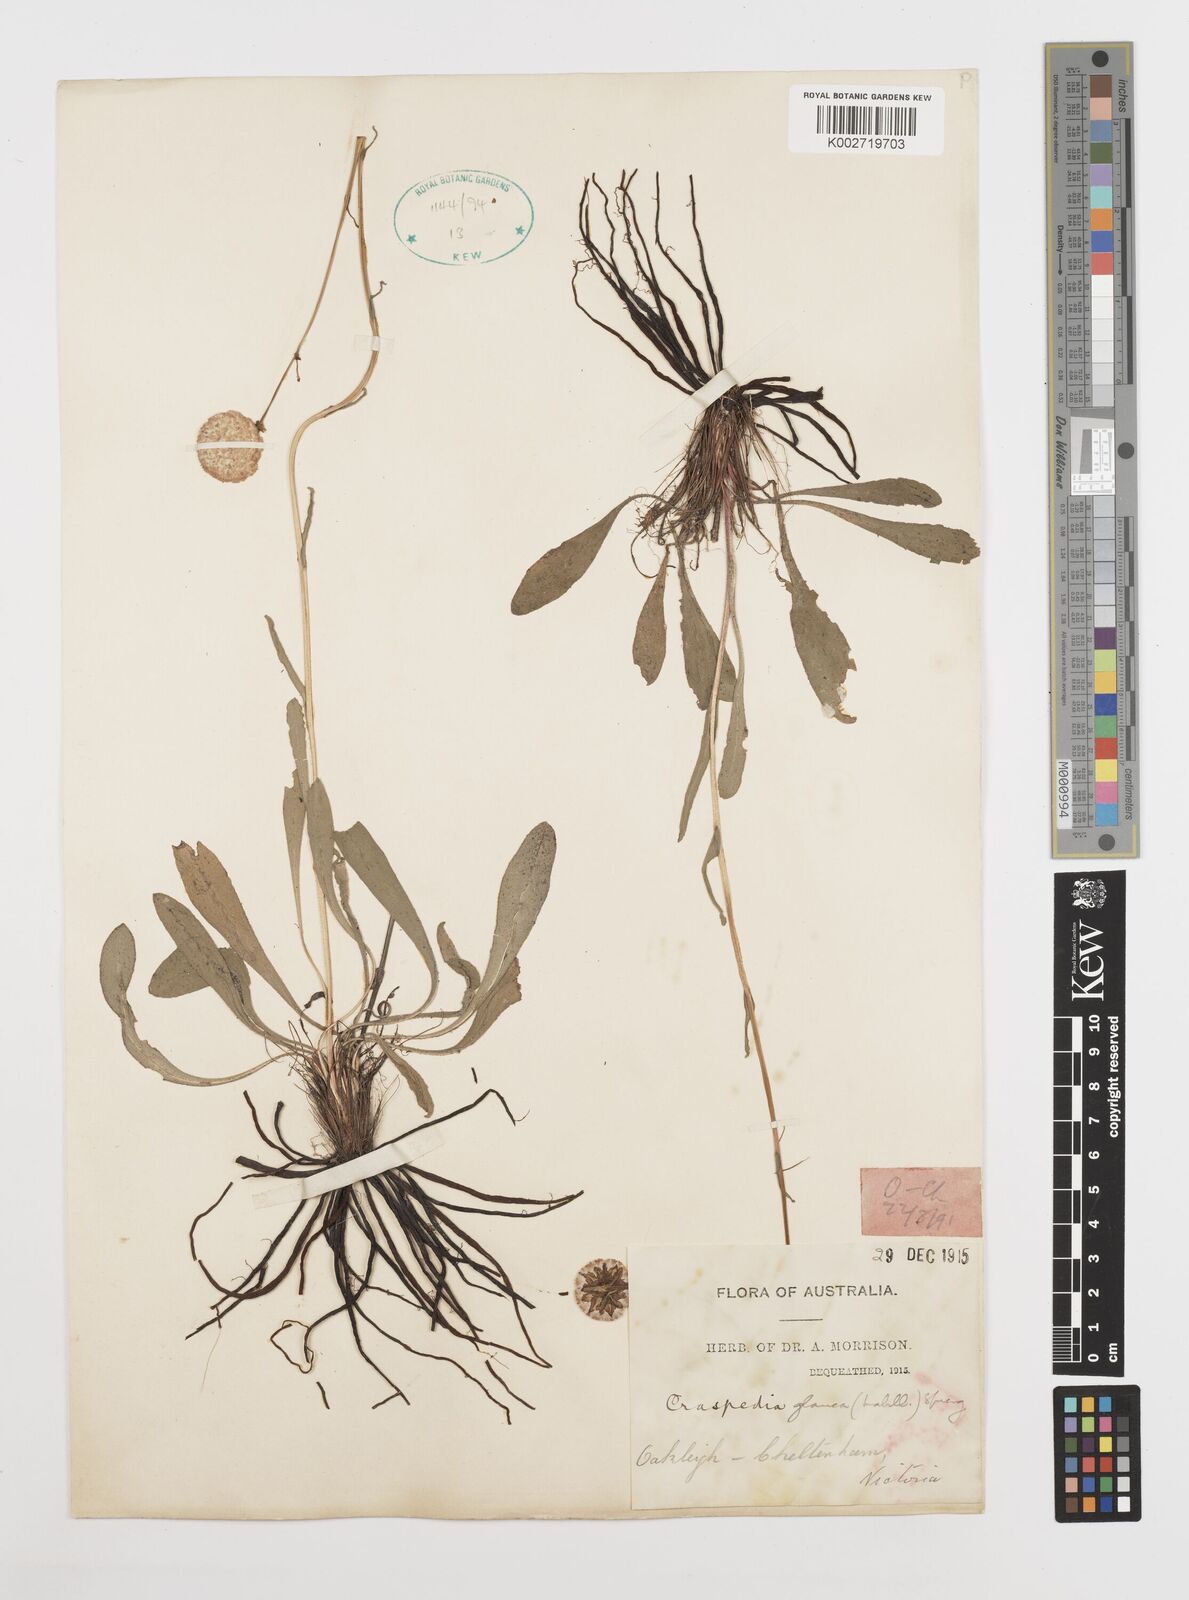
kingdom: Plantae
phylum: Tracheophyta
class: Magnoliopsida
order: Asterales
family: Asteraceae
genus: Craspedia
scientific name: Craspedia glauca
